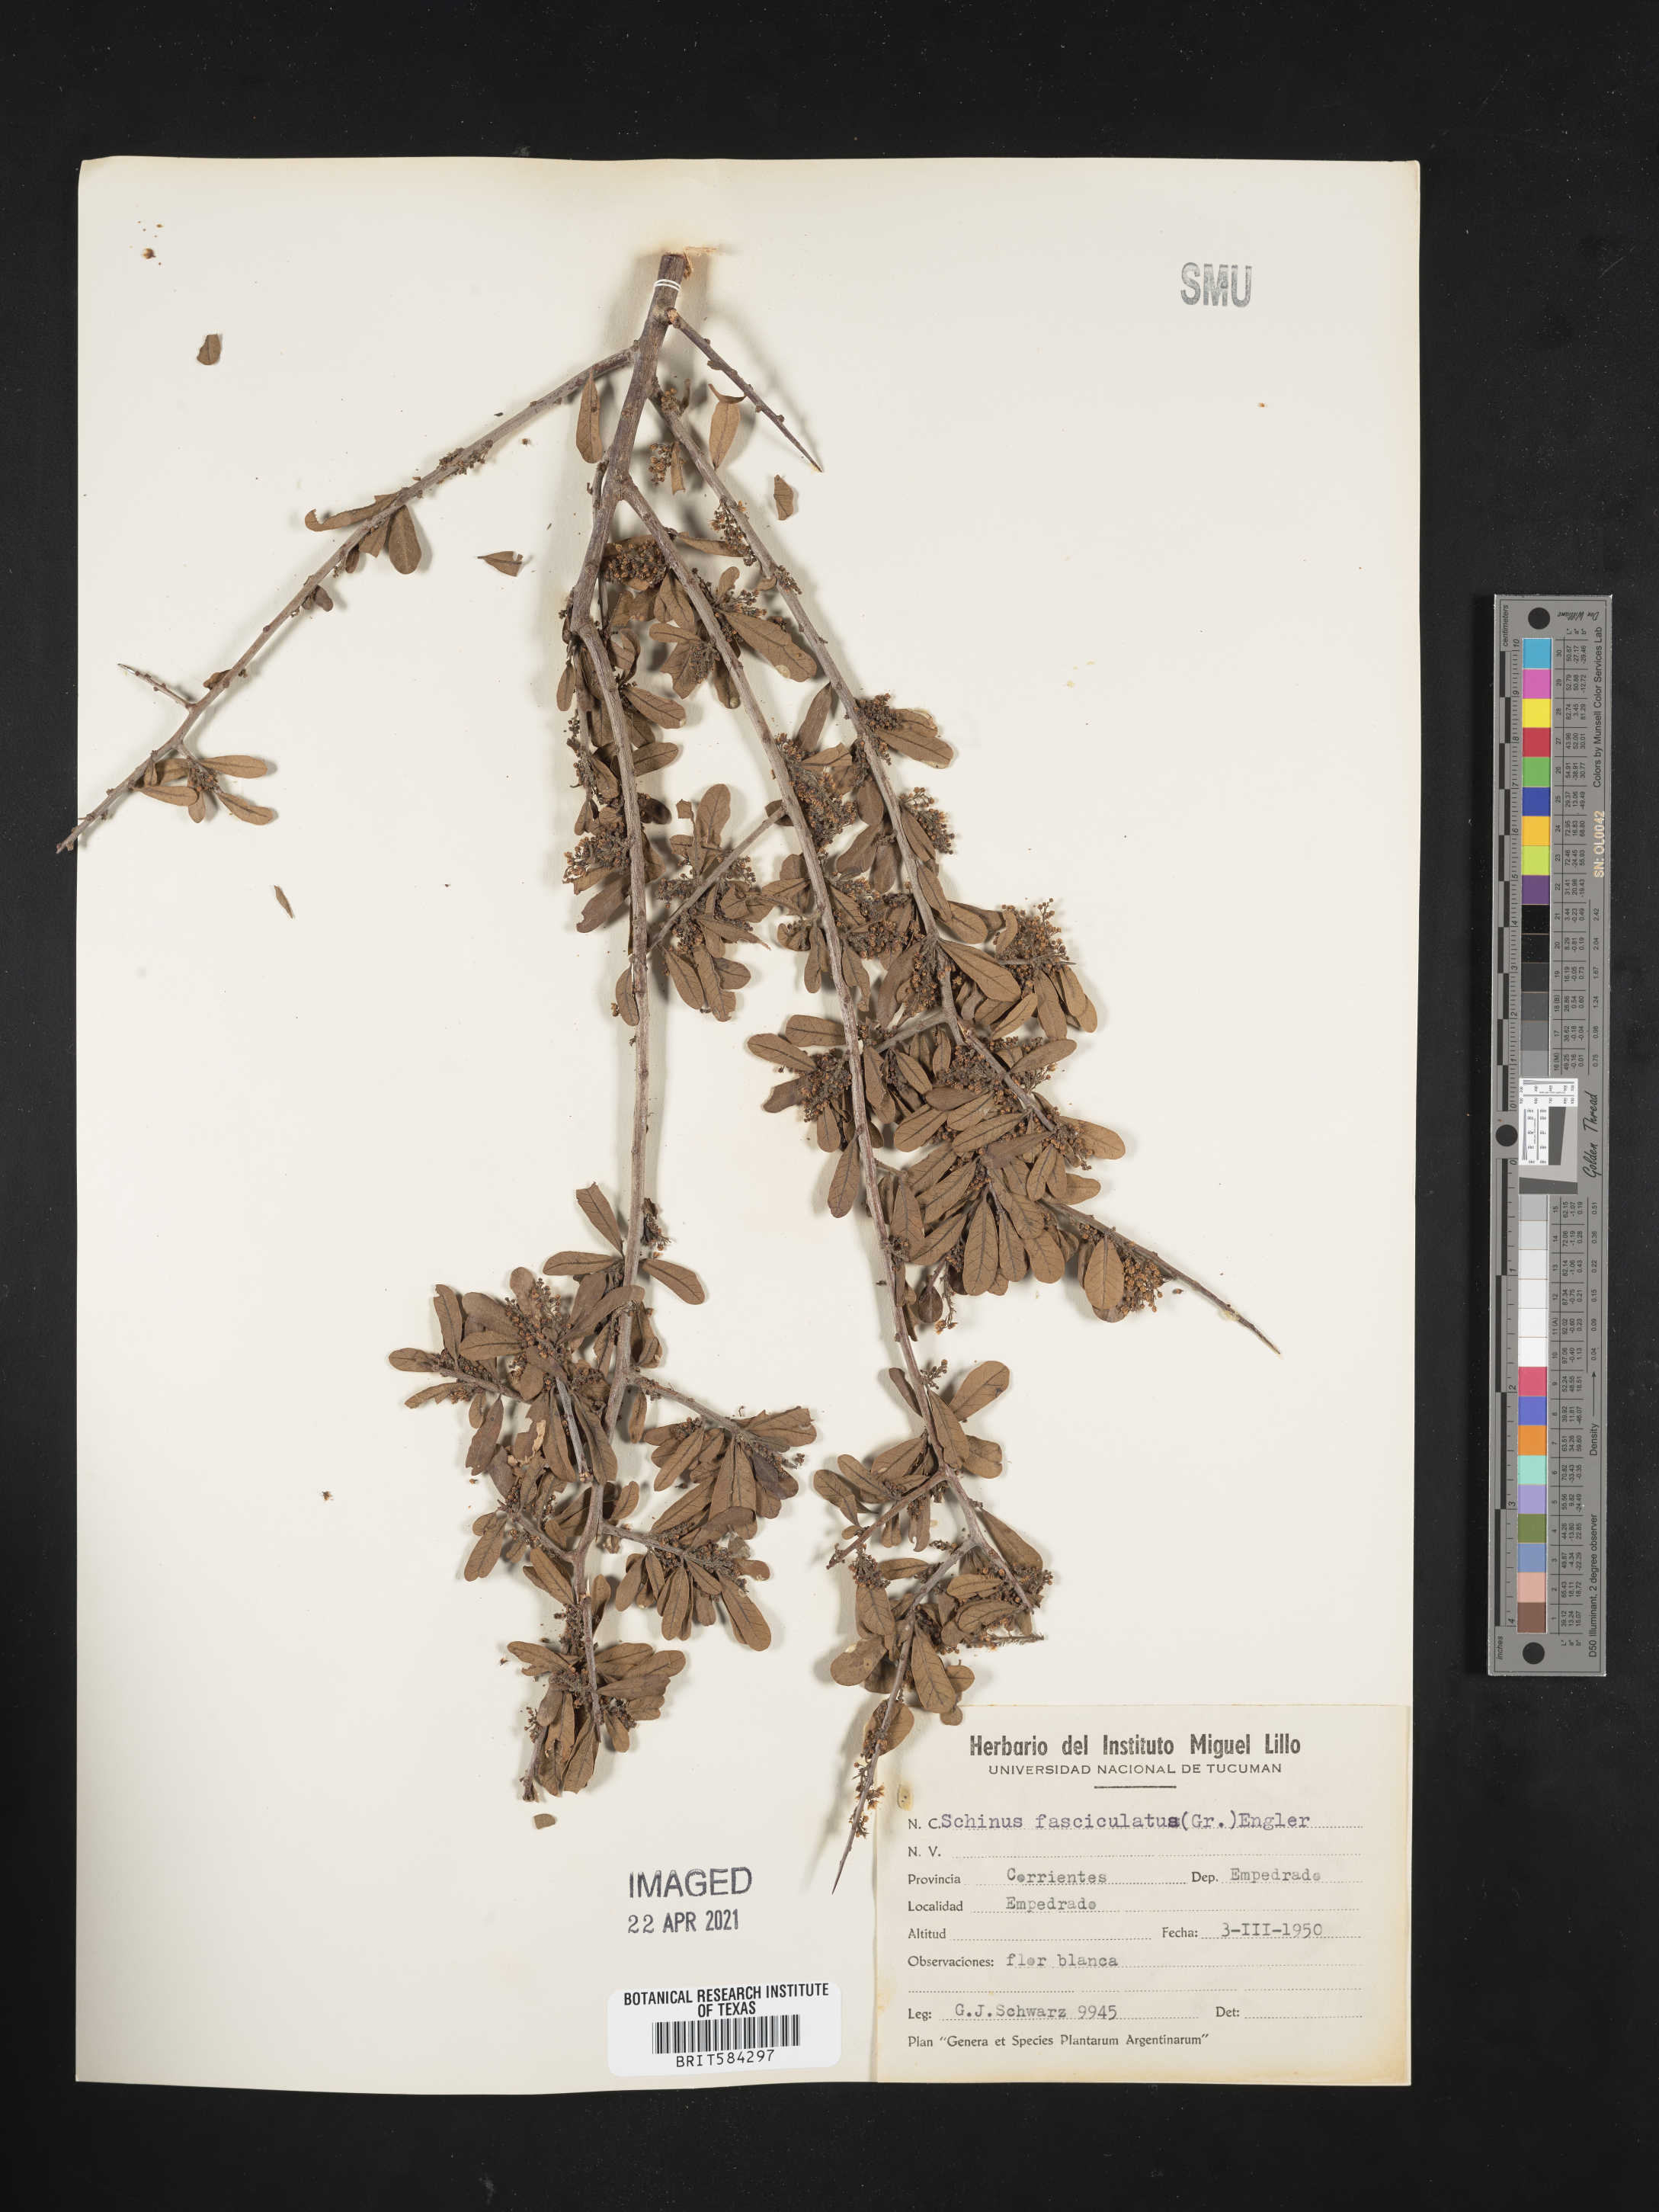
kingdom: Plantae
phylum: Tracheophyta
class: Magnoliopsida
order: Sapindales
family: Anacardiaceae
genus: Schinus
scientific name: Schinus fasciculata
